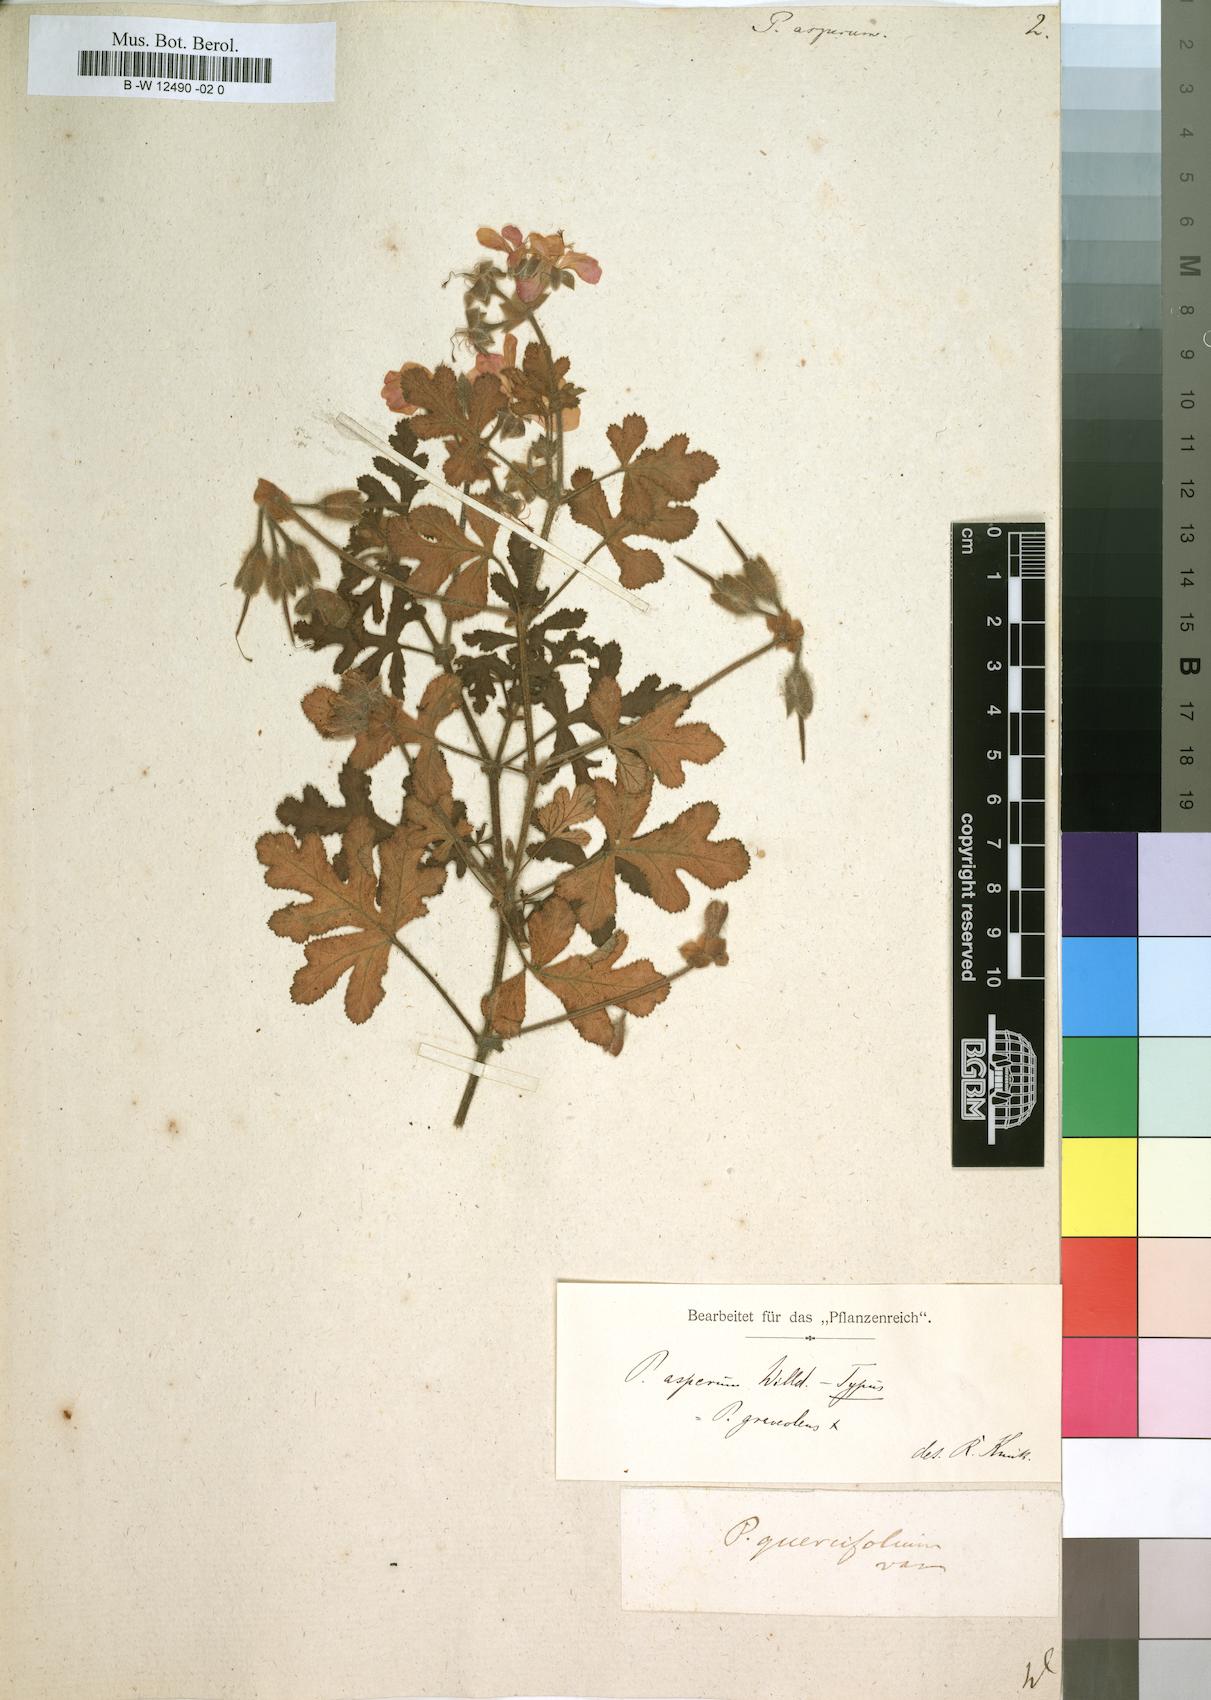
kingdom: Plantae
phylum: Tracheophyta
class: Magnoliopsida
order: Geraniales
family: Geraniaceae
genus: Pelargonium
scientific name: Pelargonium asperum
